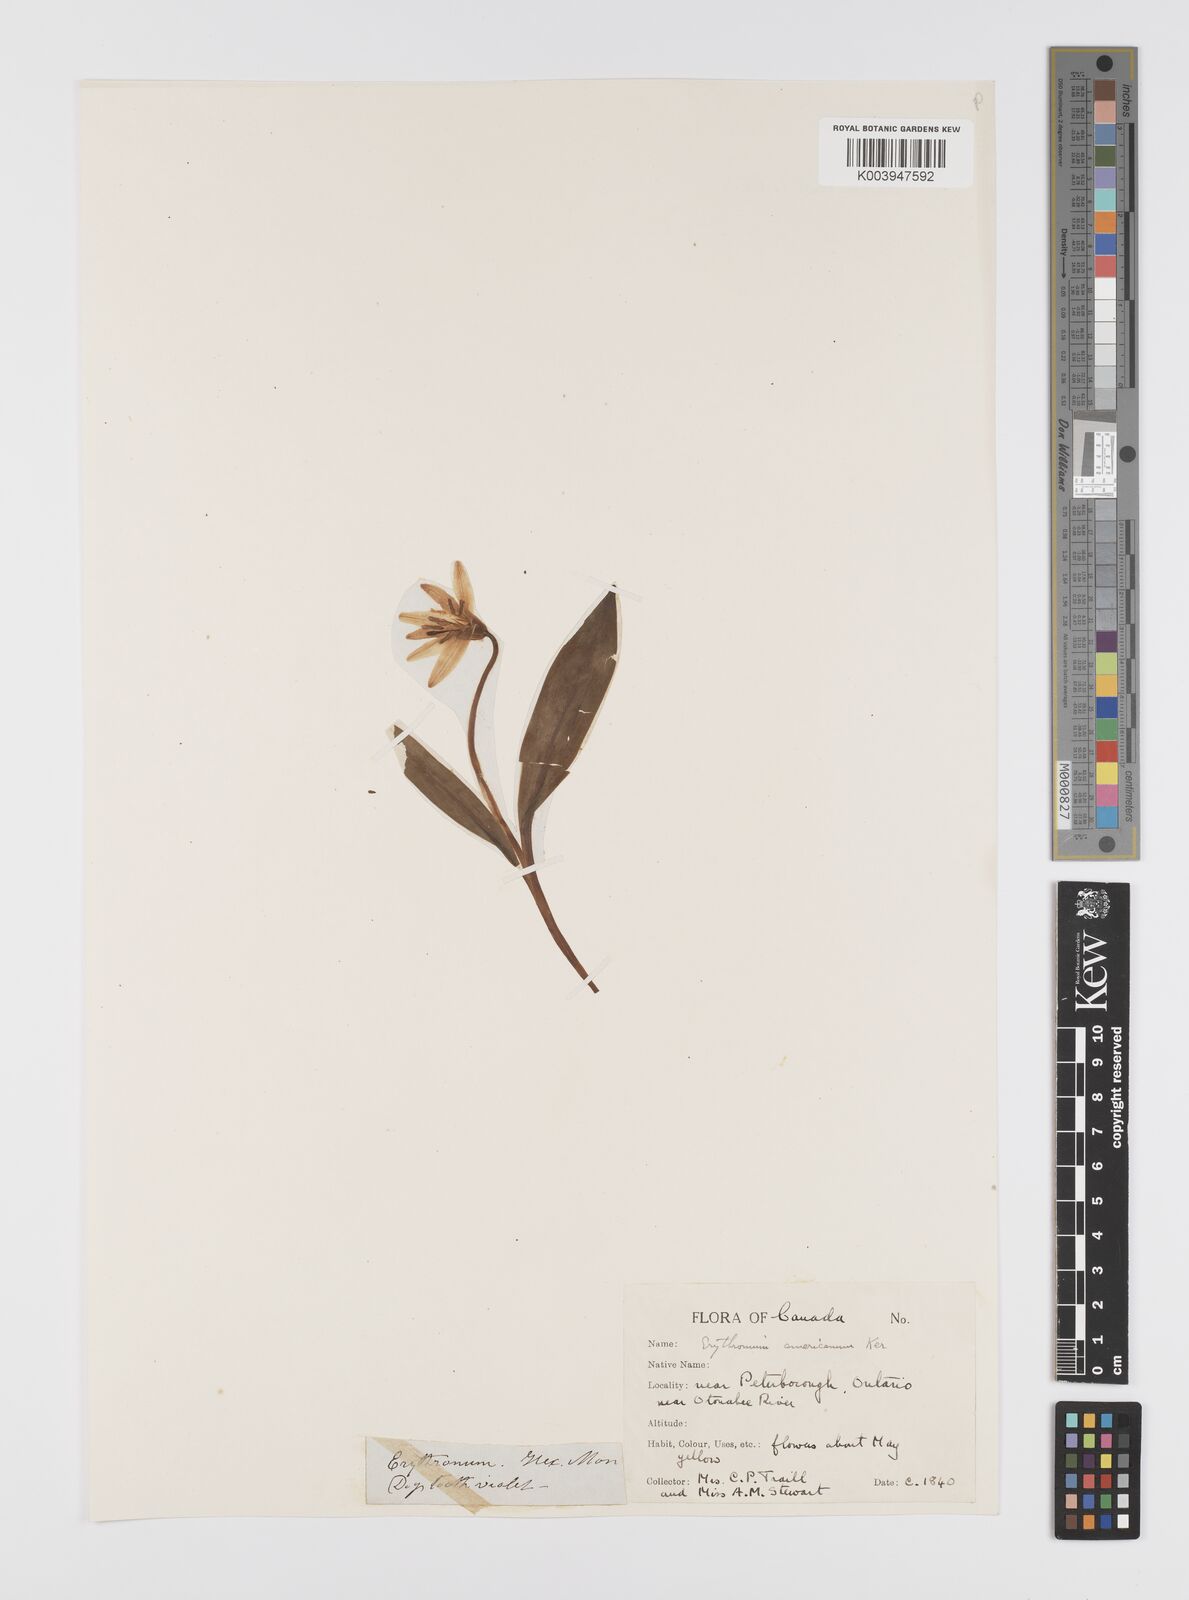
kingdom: Plantae
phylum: Tracheophyta
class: Liliopsida
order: Liliales
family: Liliaceae
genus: Erythronium
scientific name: Erythronium grandiflorum
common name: Avalanche-lily
